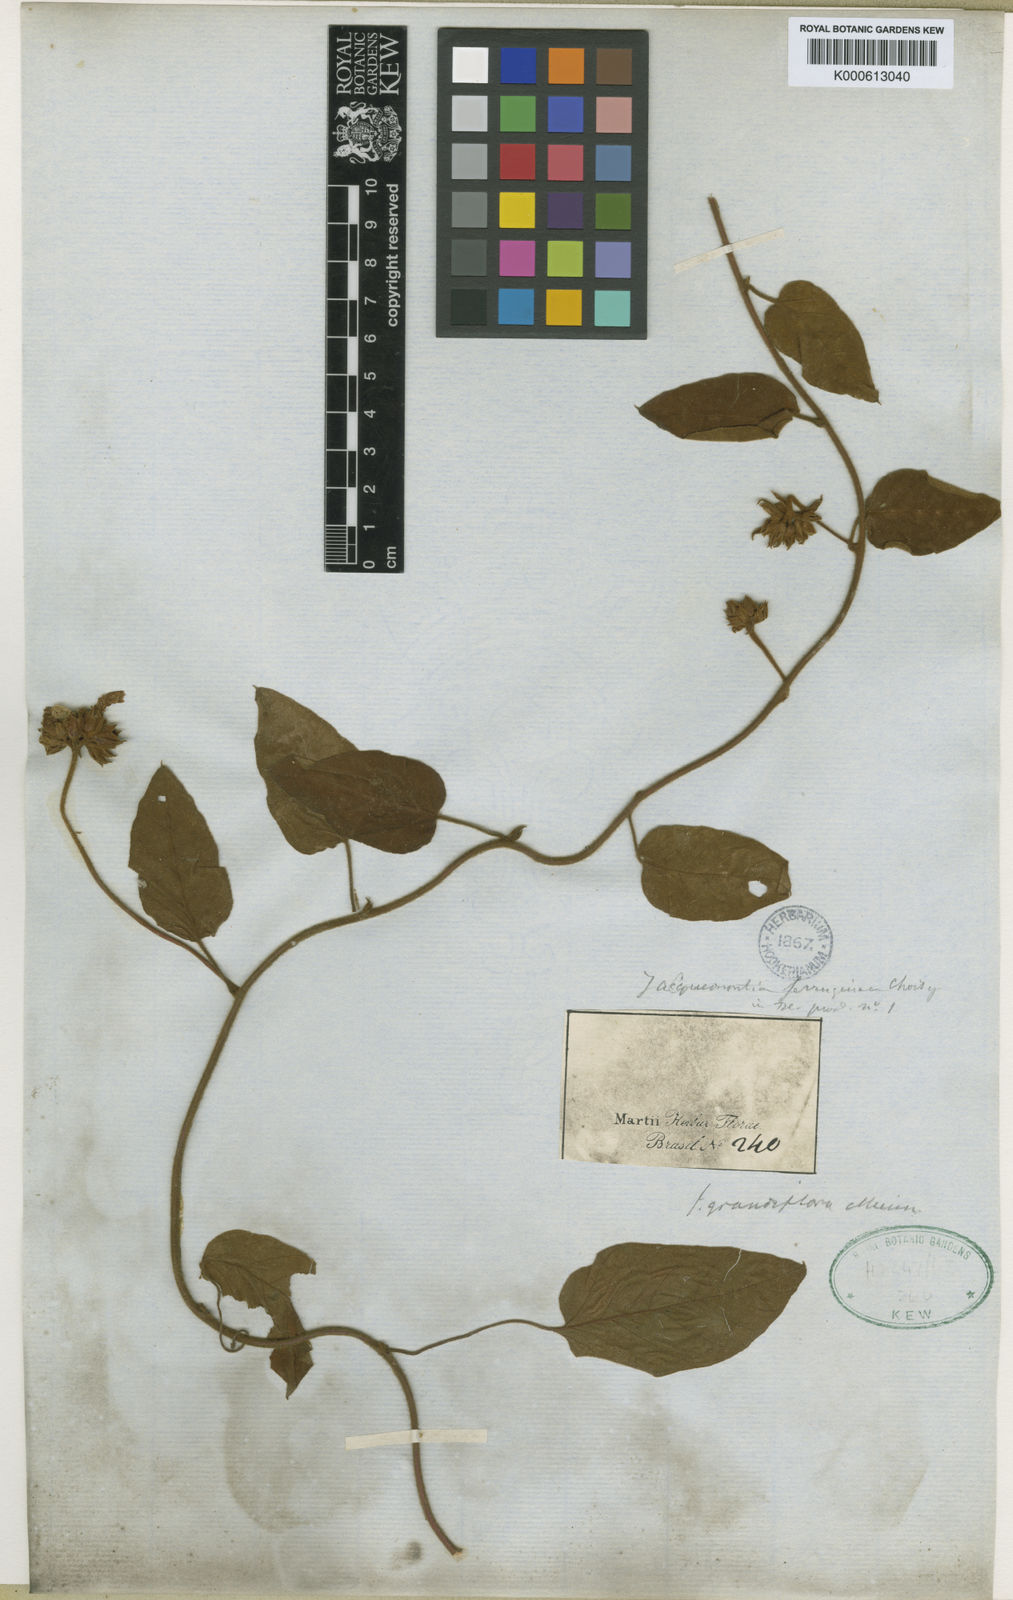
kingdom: Plantae
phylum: Tracheophyta
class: Magnoliopsida
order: Solanales
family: Convolvulaceae
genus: Jacquemontia
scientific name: Jacquemontia velloziana
